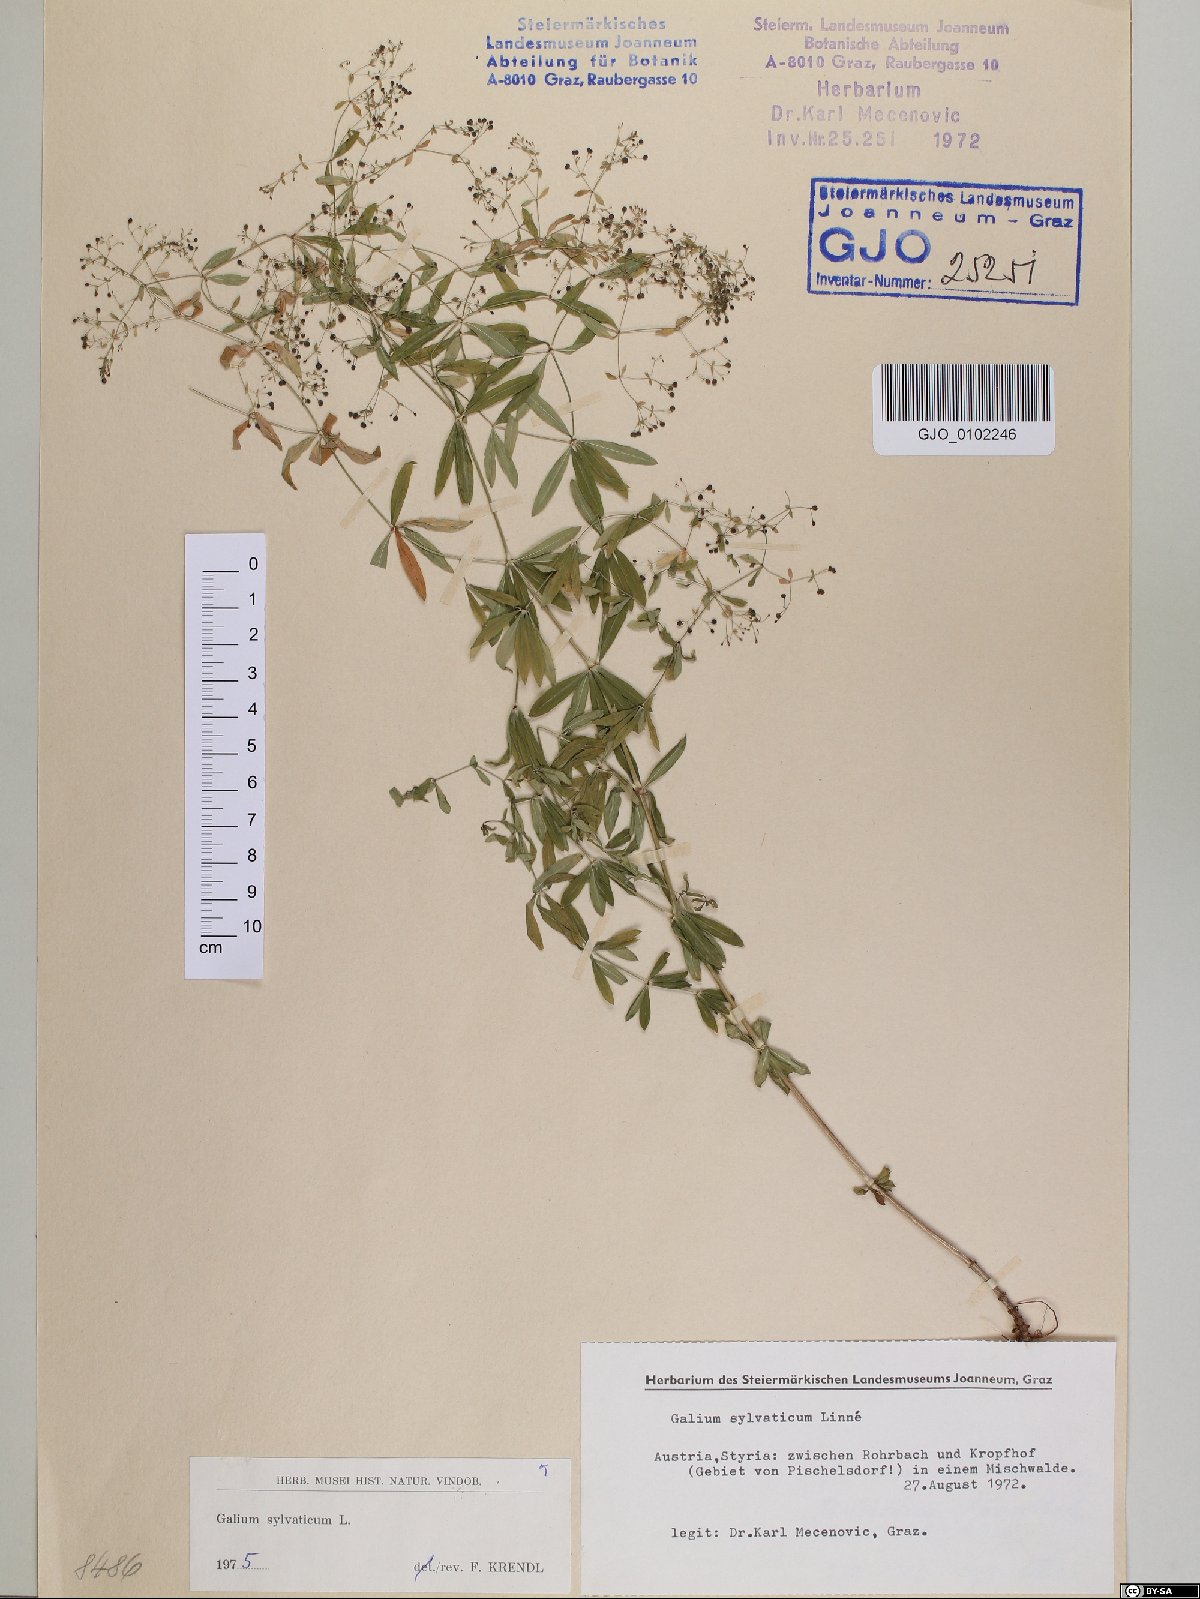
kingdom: Plantae
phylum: Tracheophyta
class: Magnoliopsida
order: Gentianales
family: Rubiaceae
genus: Galium
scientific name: Galium sylvaticum
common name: Wood bedstraw
